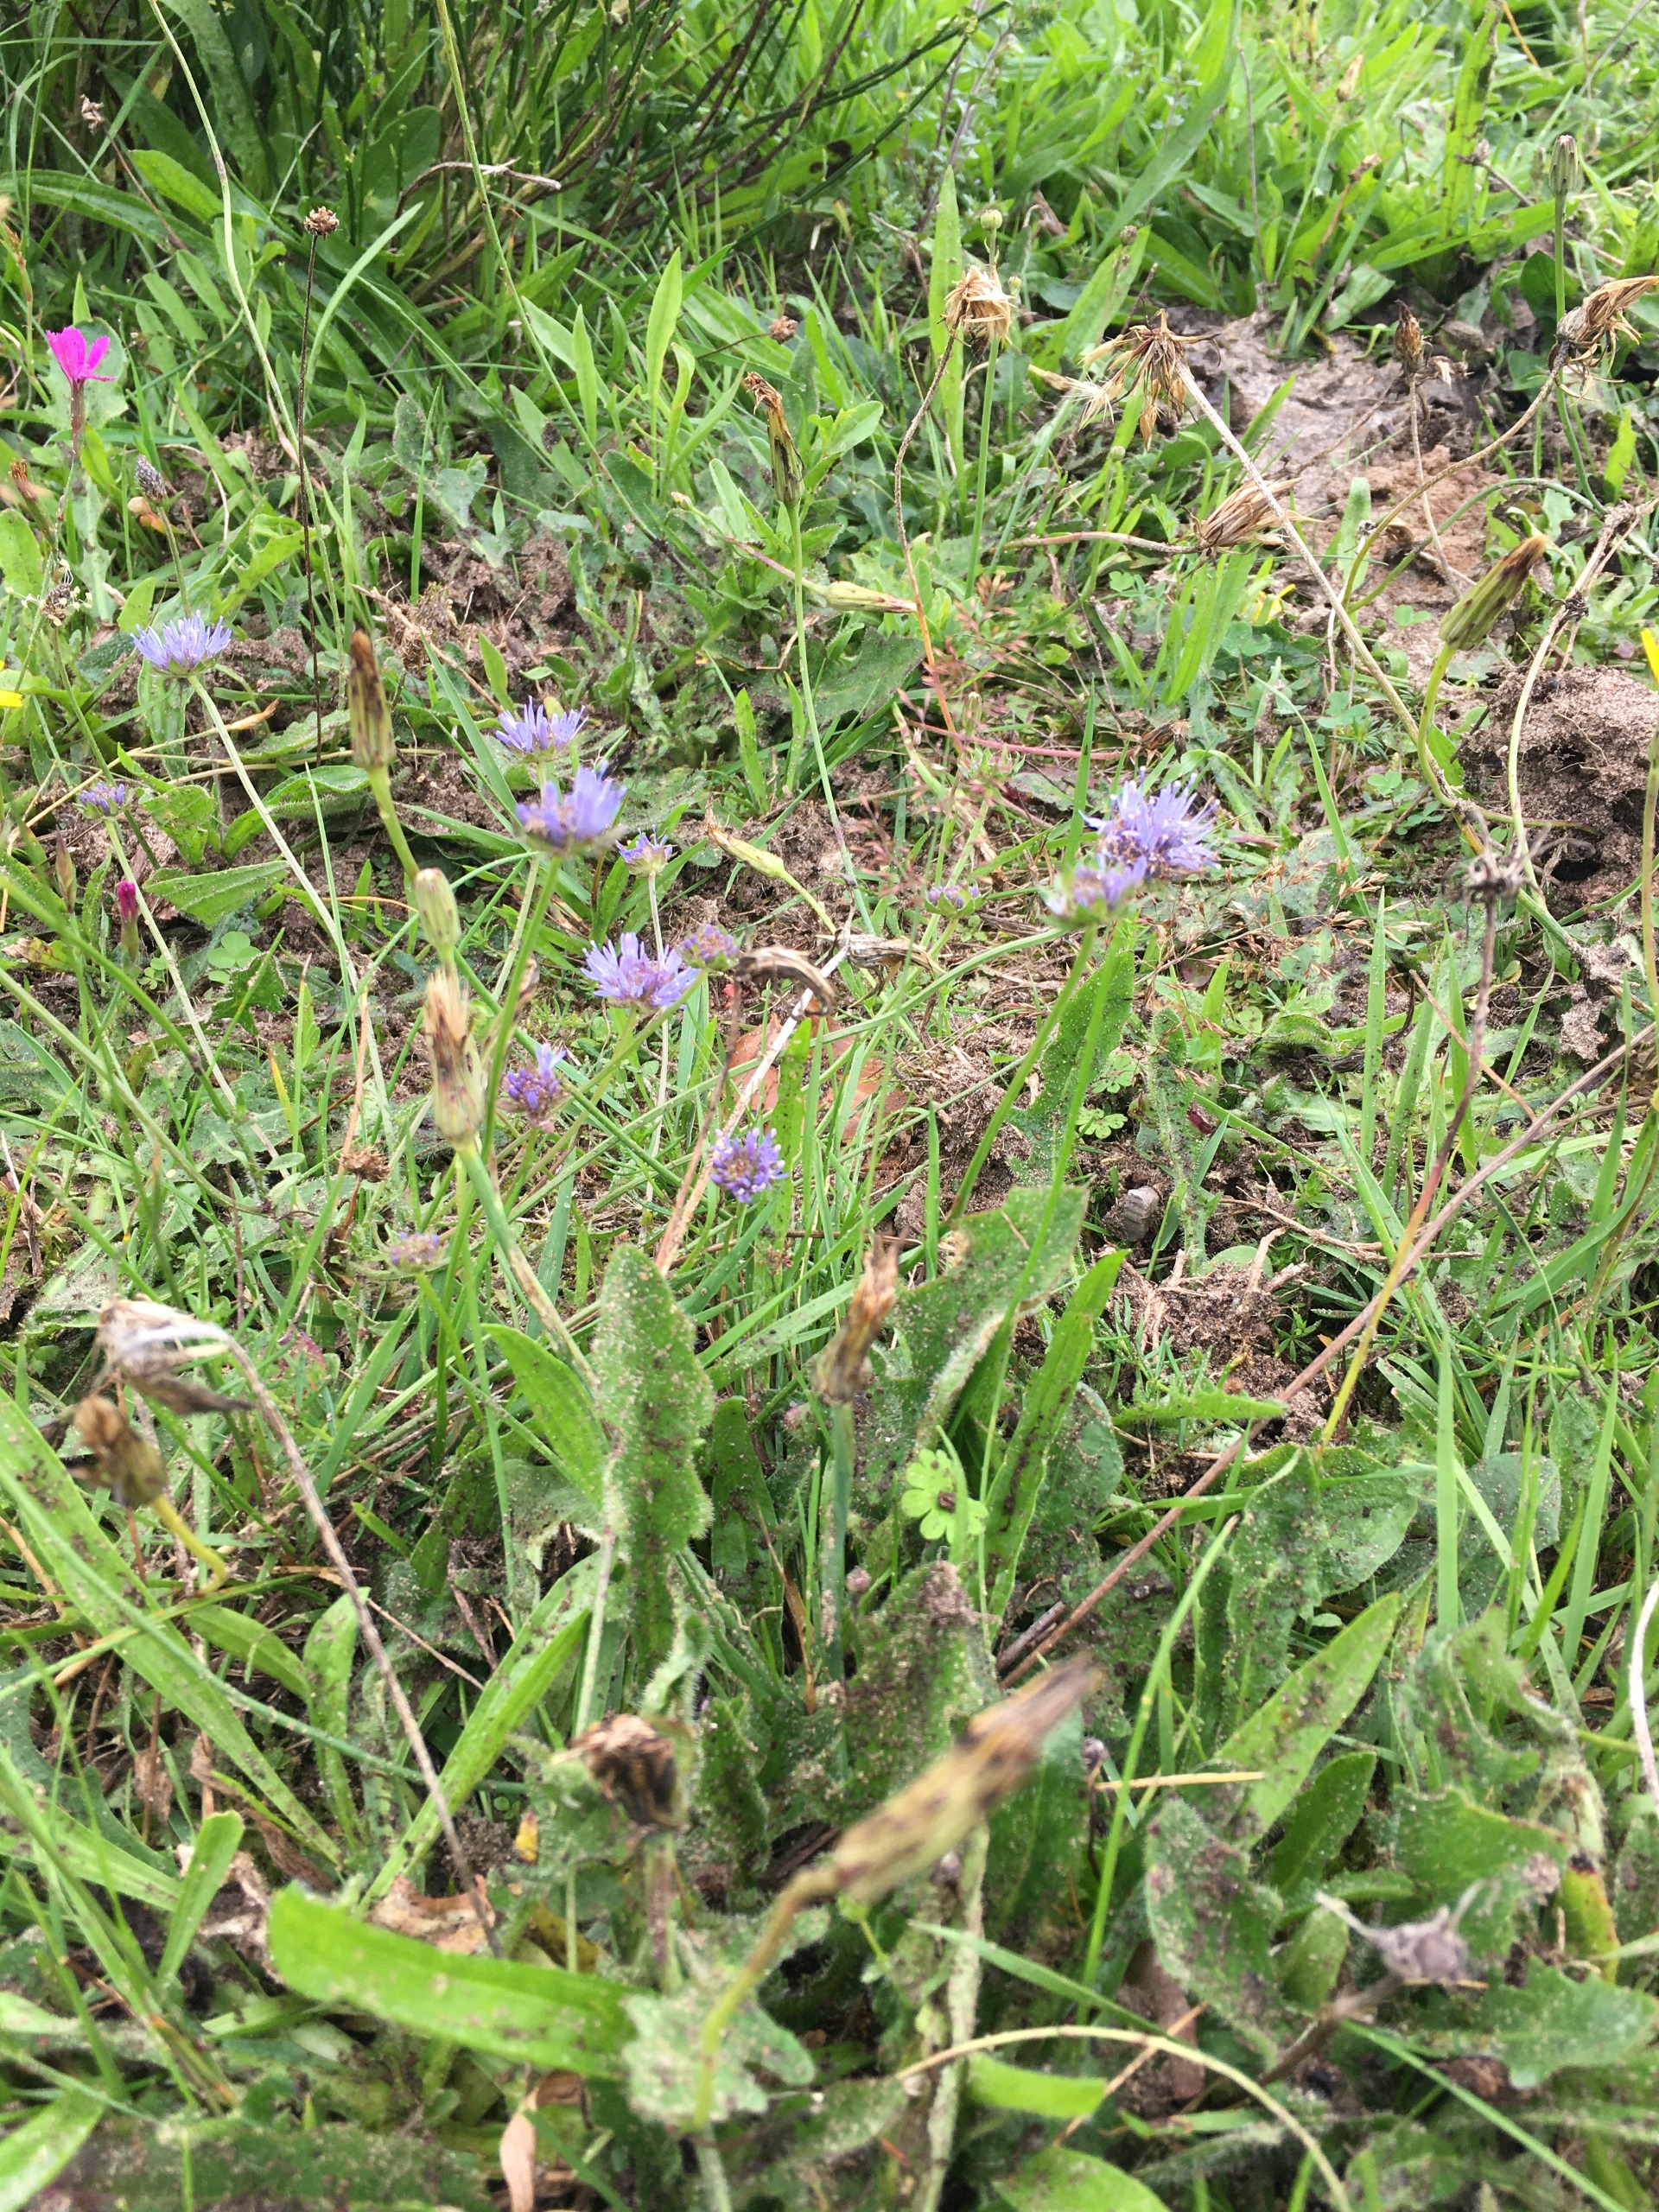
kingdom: Plantae
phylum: Tracheophyta
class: Magnoliopsida
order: Asterales
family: Campanulaceae
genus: Jasione
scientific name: Jasione montana
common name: Blåmunke
